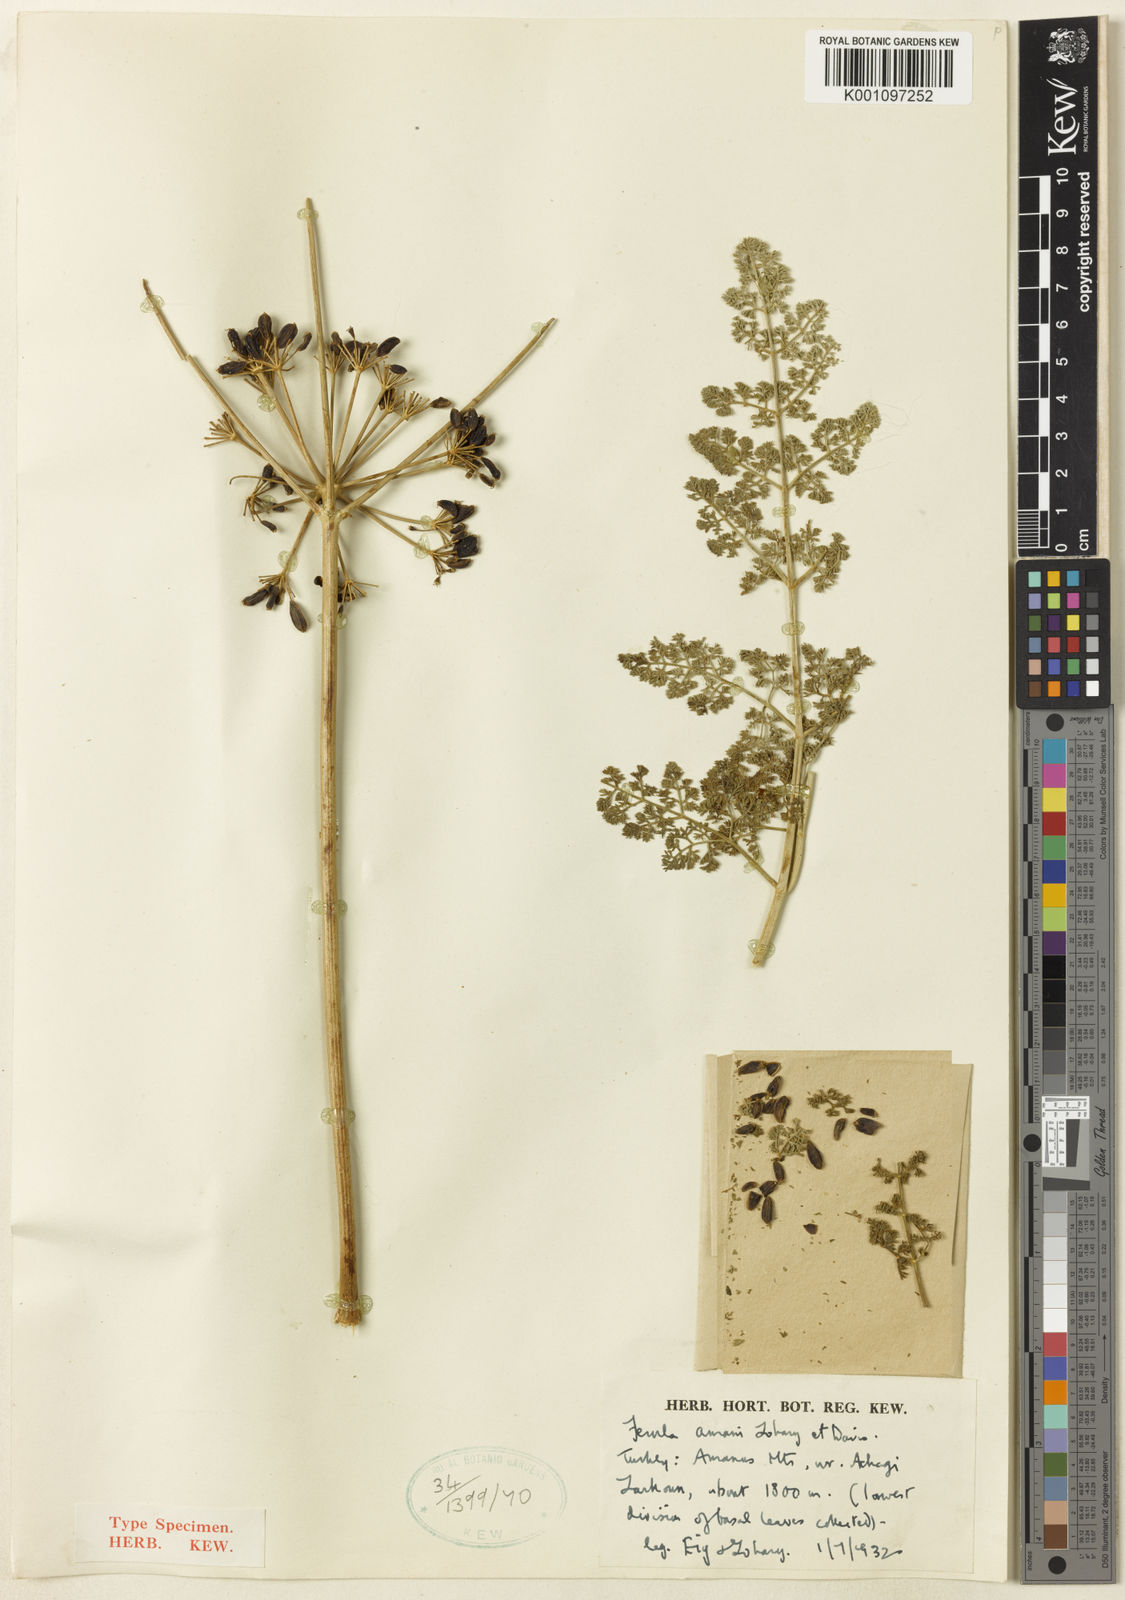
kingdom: Plantae
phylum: Tracheophyta
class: Magnoliopsida
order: Apiales
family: Apiaceae
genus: Ferula
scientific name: Ferula elaeochytris
